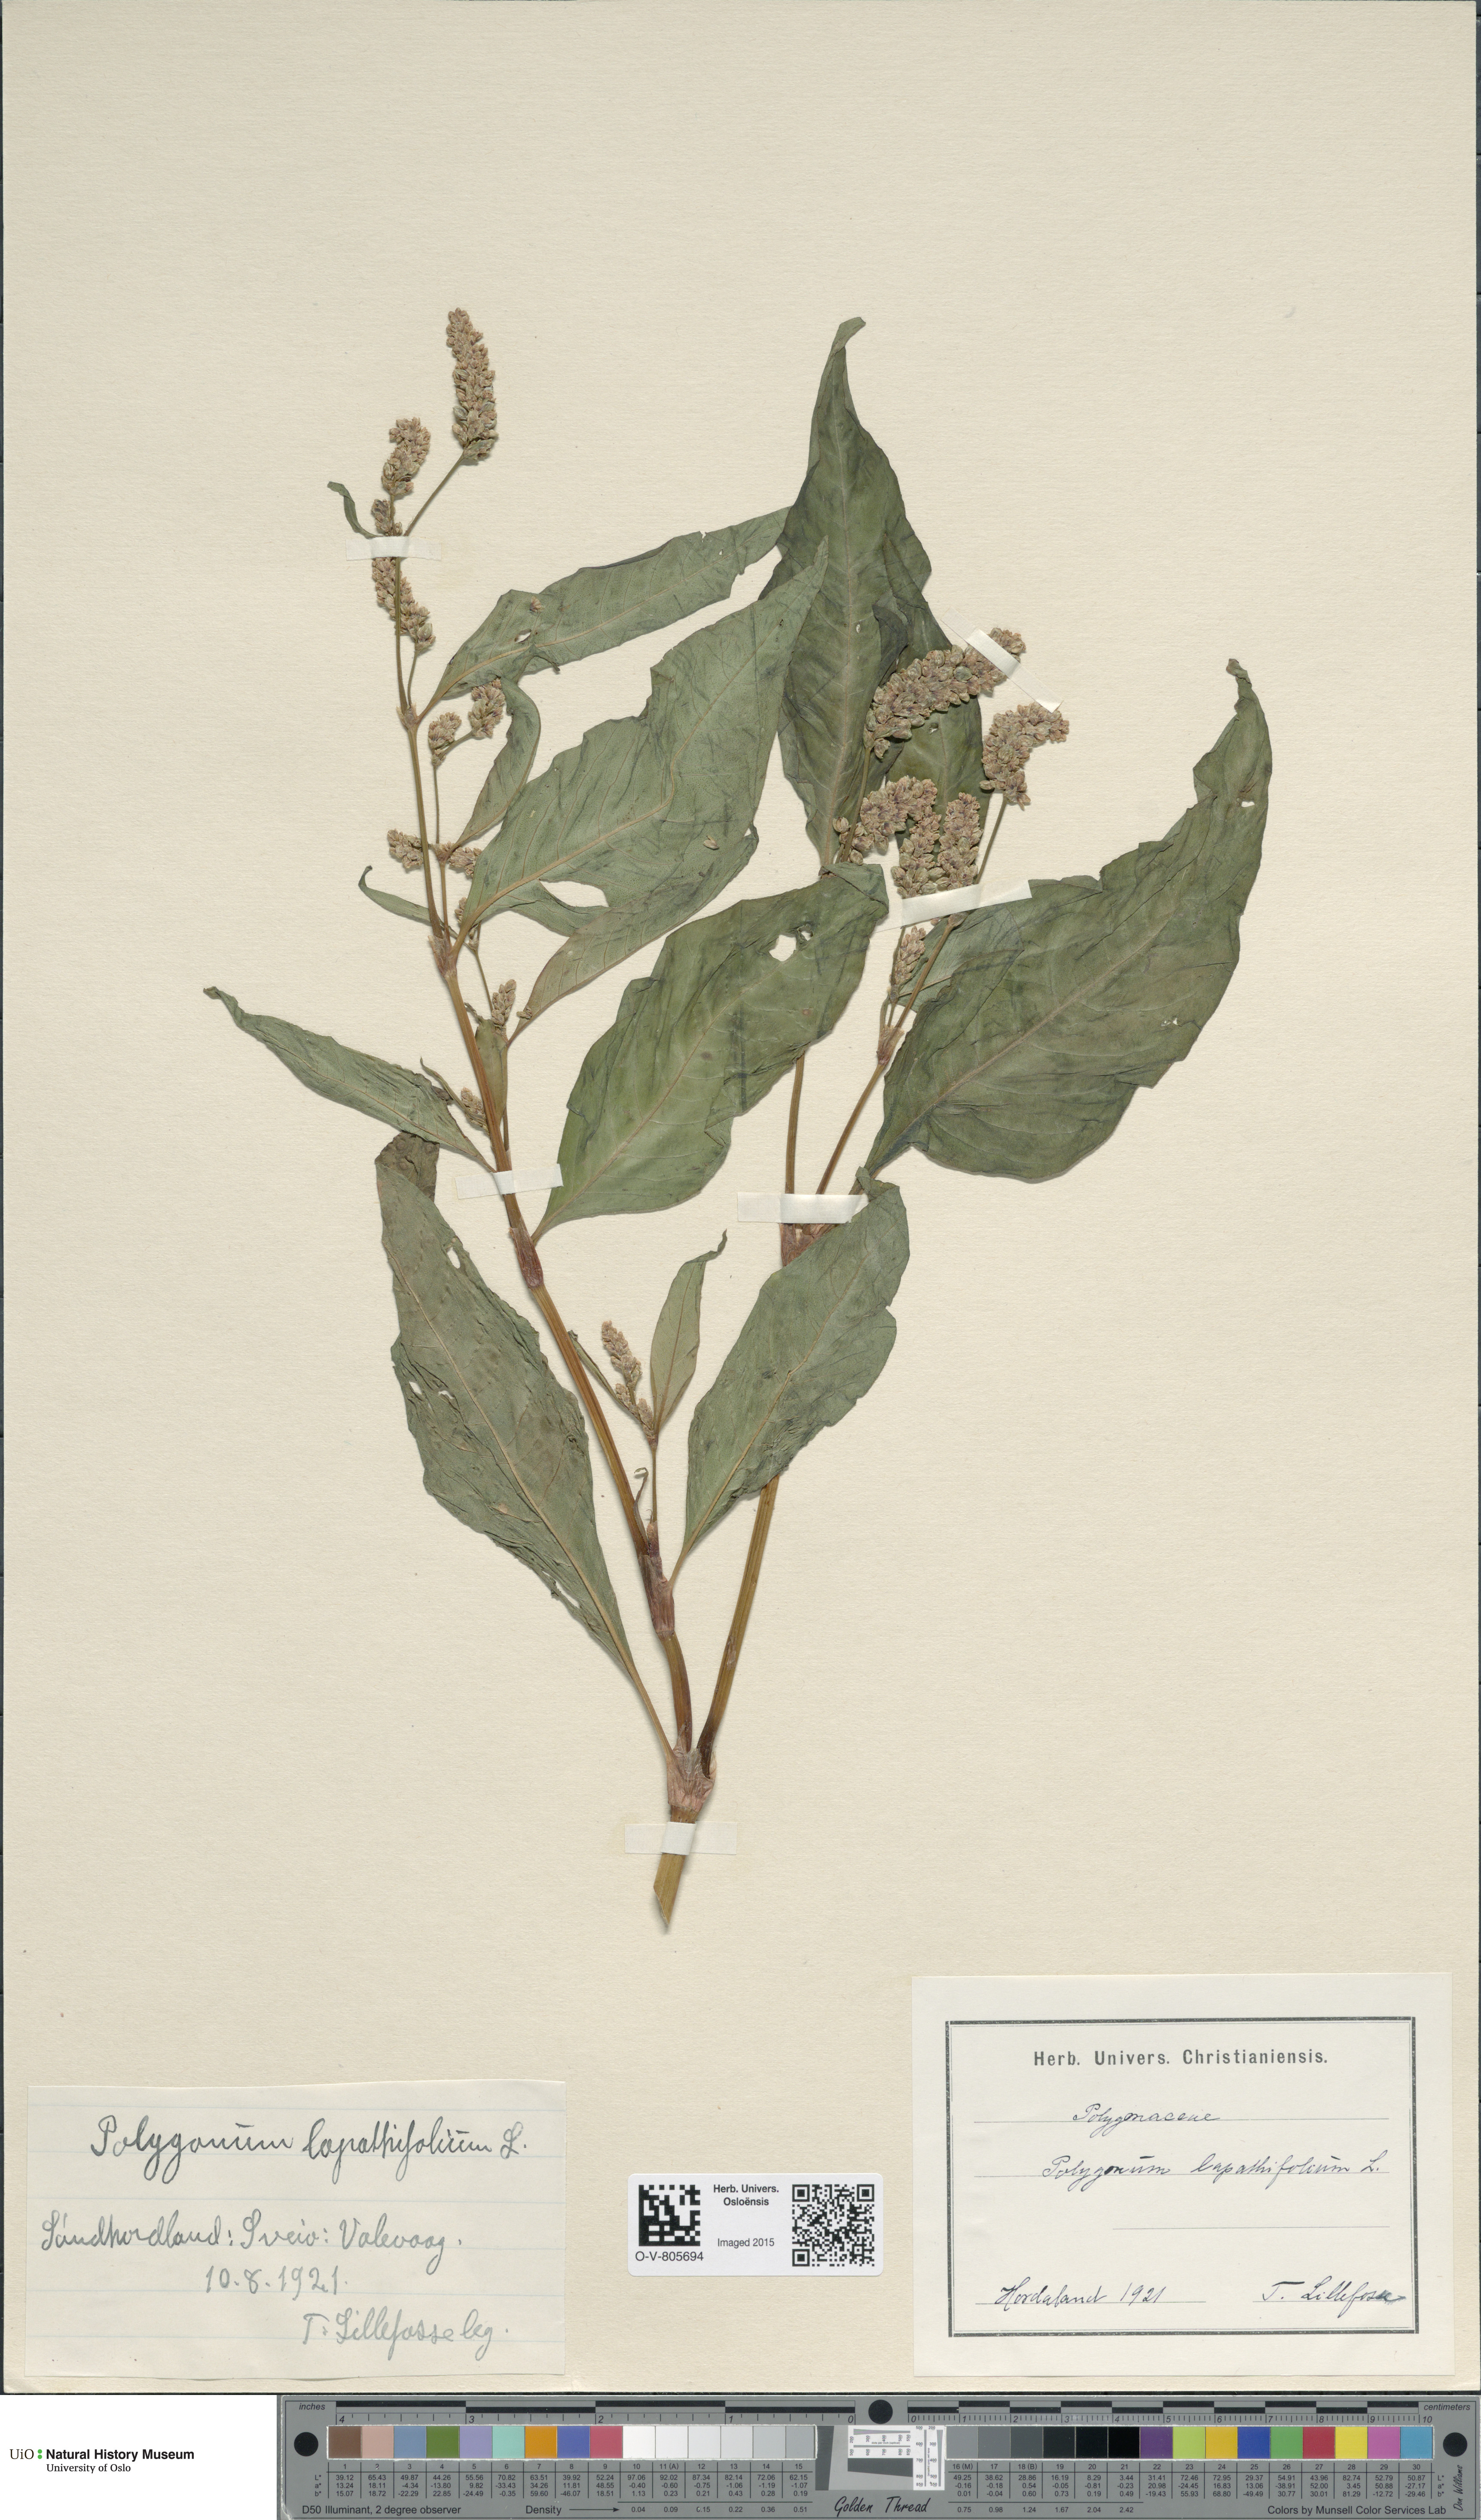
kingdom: Plantae
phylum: Tracheophyta
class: Magnoliopsida
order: Caryophyllales
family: Polygonaceae
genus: Persicaria
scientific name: Persicaria lapathifolia
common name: Curlytop knotweed
